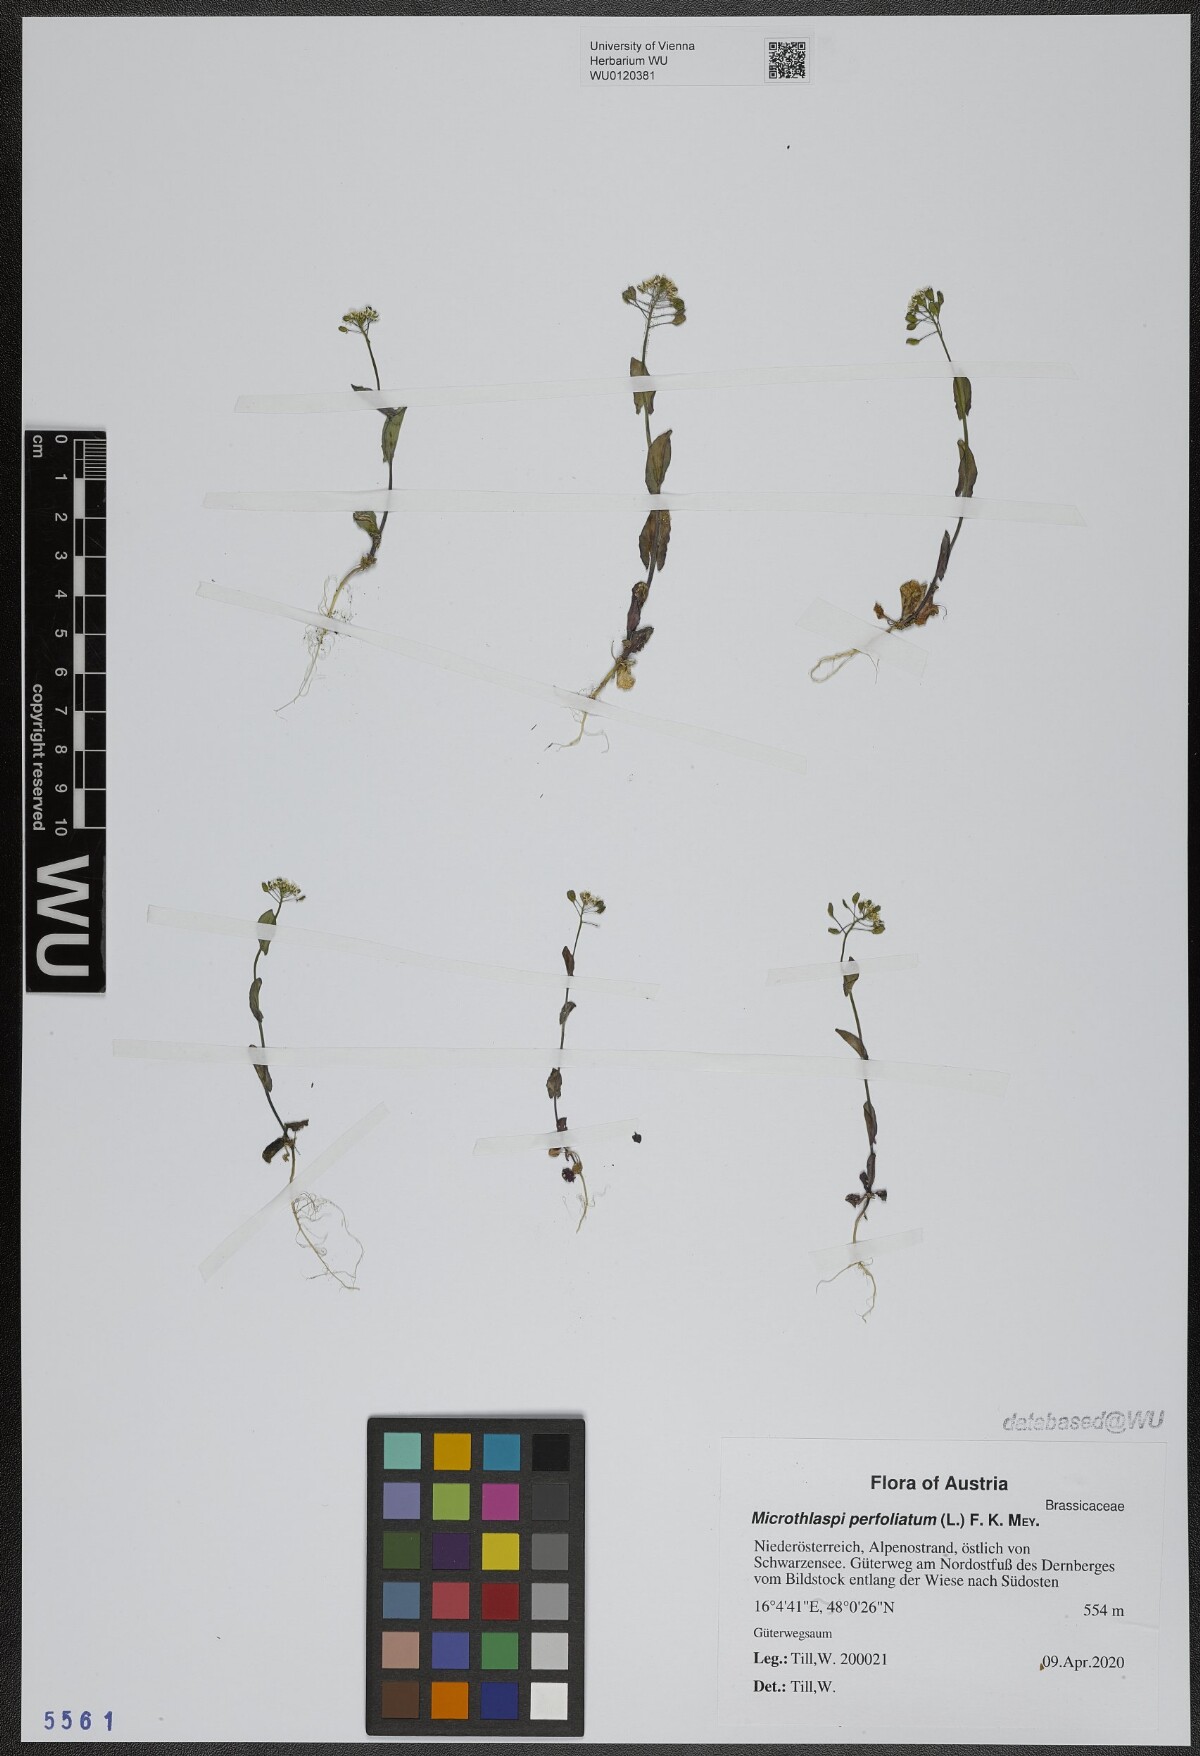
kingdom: Plantae
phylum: Tracheophyta
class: Magnoliopsida
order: Brassicales
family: Brassicaceae
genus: Noccaea
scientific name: Noccaea perfoliata
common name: Perfoliate pennycress
